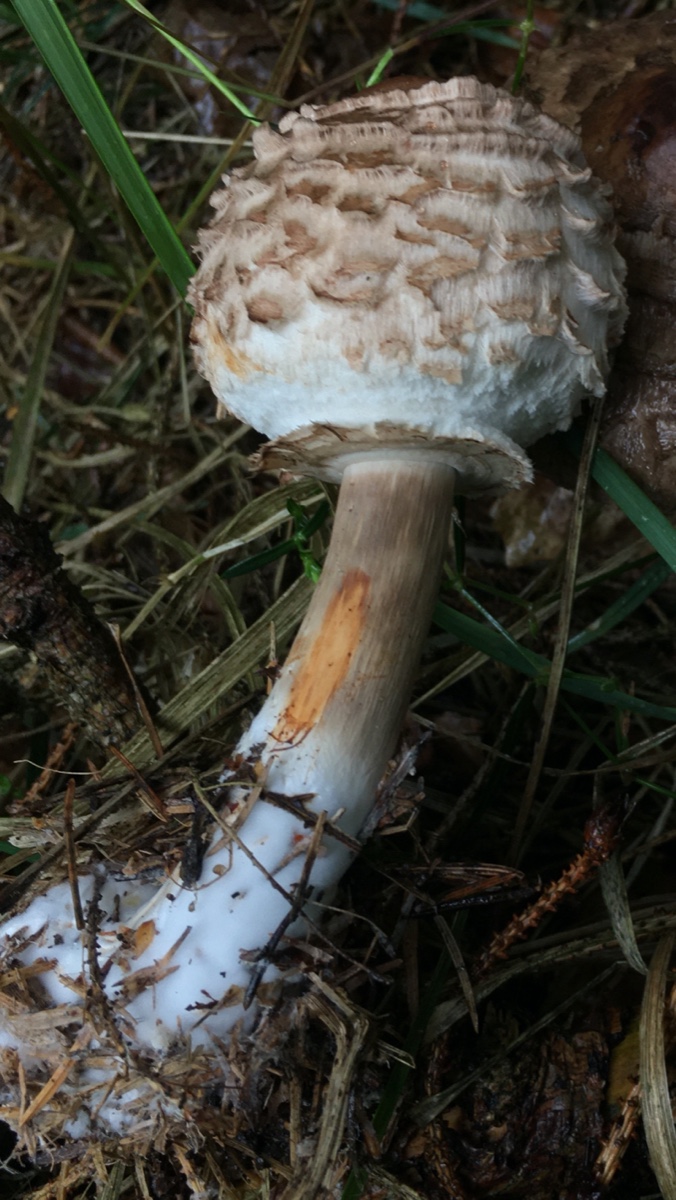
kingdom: Fungi
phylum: Basidiomycota
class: Agaricomycetes
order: Agaricales
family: Agaricaceae
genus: Chlorophyllum
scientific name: Chlorophyllum olivieri
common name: almindelig rabarberhat
